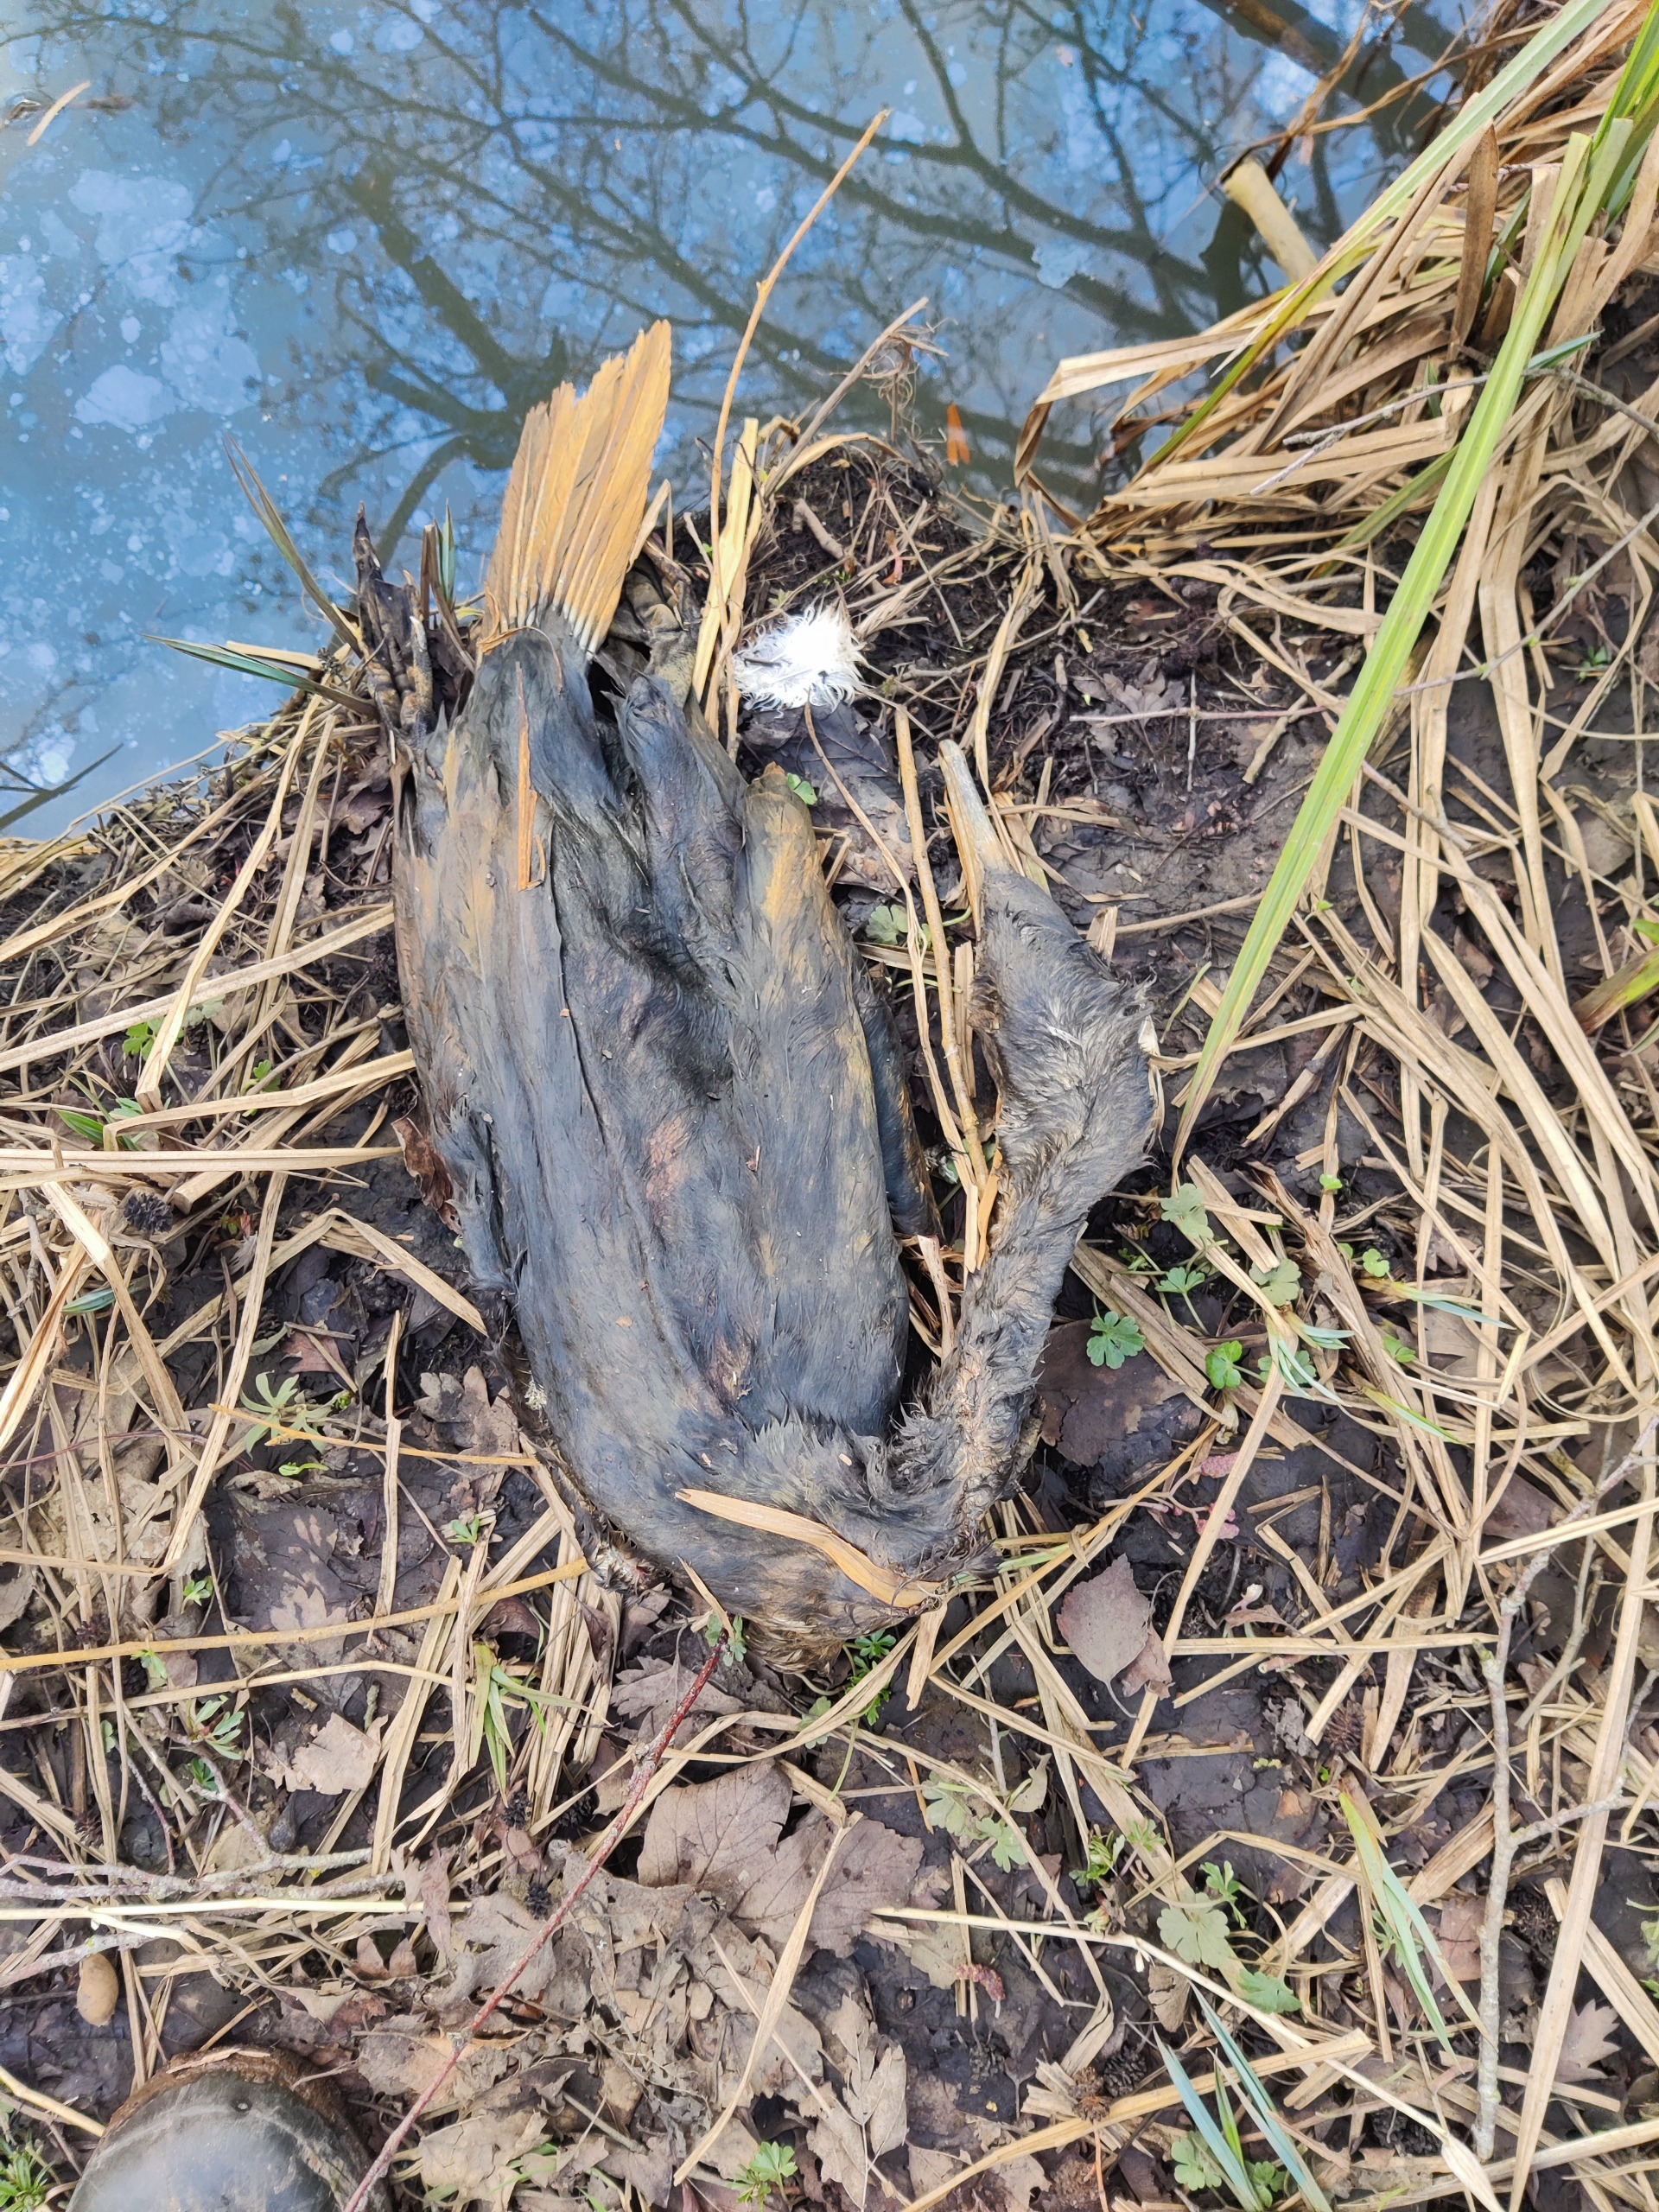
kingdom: Animalia
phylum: Chordata
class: Aves
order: Suliformes
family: Phalacrocoracidae
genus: Phalacrocorax
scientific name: Phalacrocorax carbo
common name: Skarv
